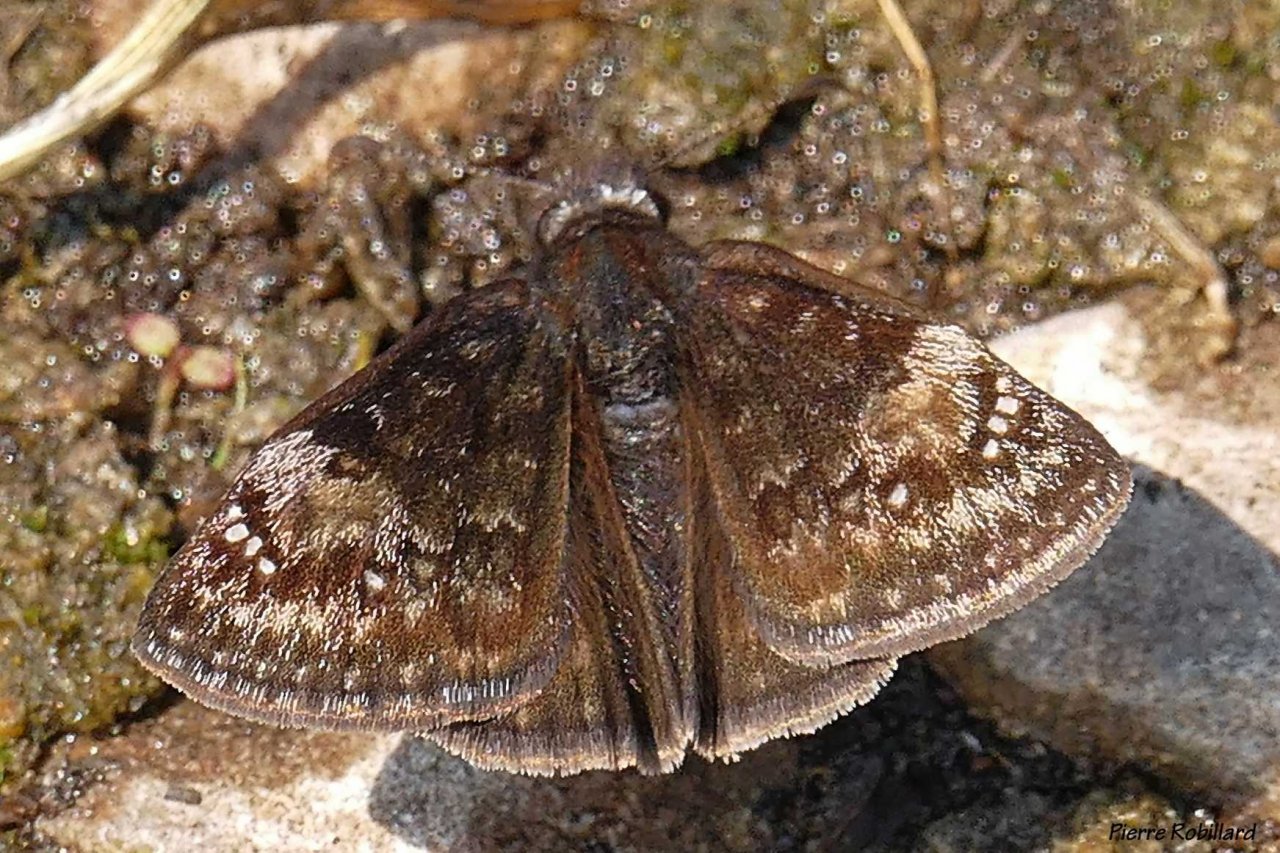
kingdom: Animalia
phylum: Arthropoda
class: Insecta
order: Lepidoptera
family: Hesperiidae
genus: Gesta
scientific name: Gesta
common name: Wild Indigo Duskywing
